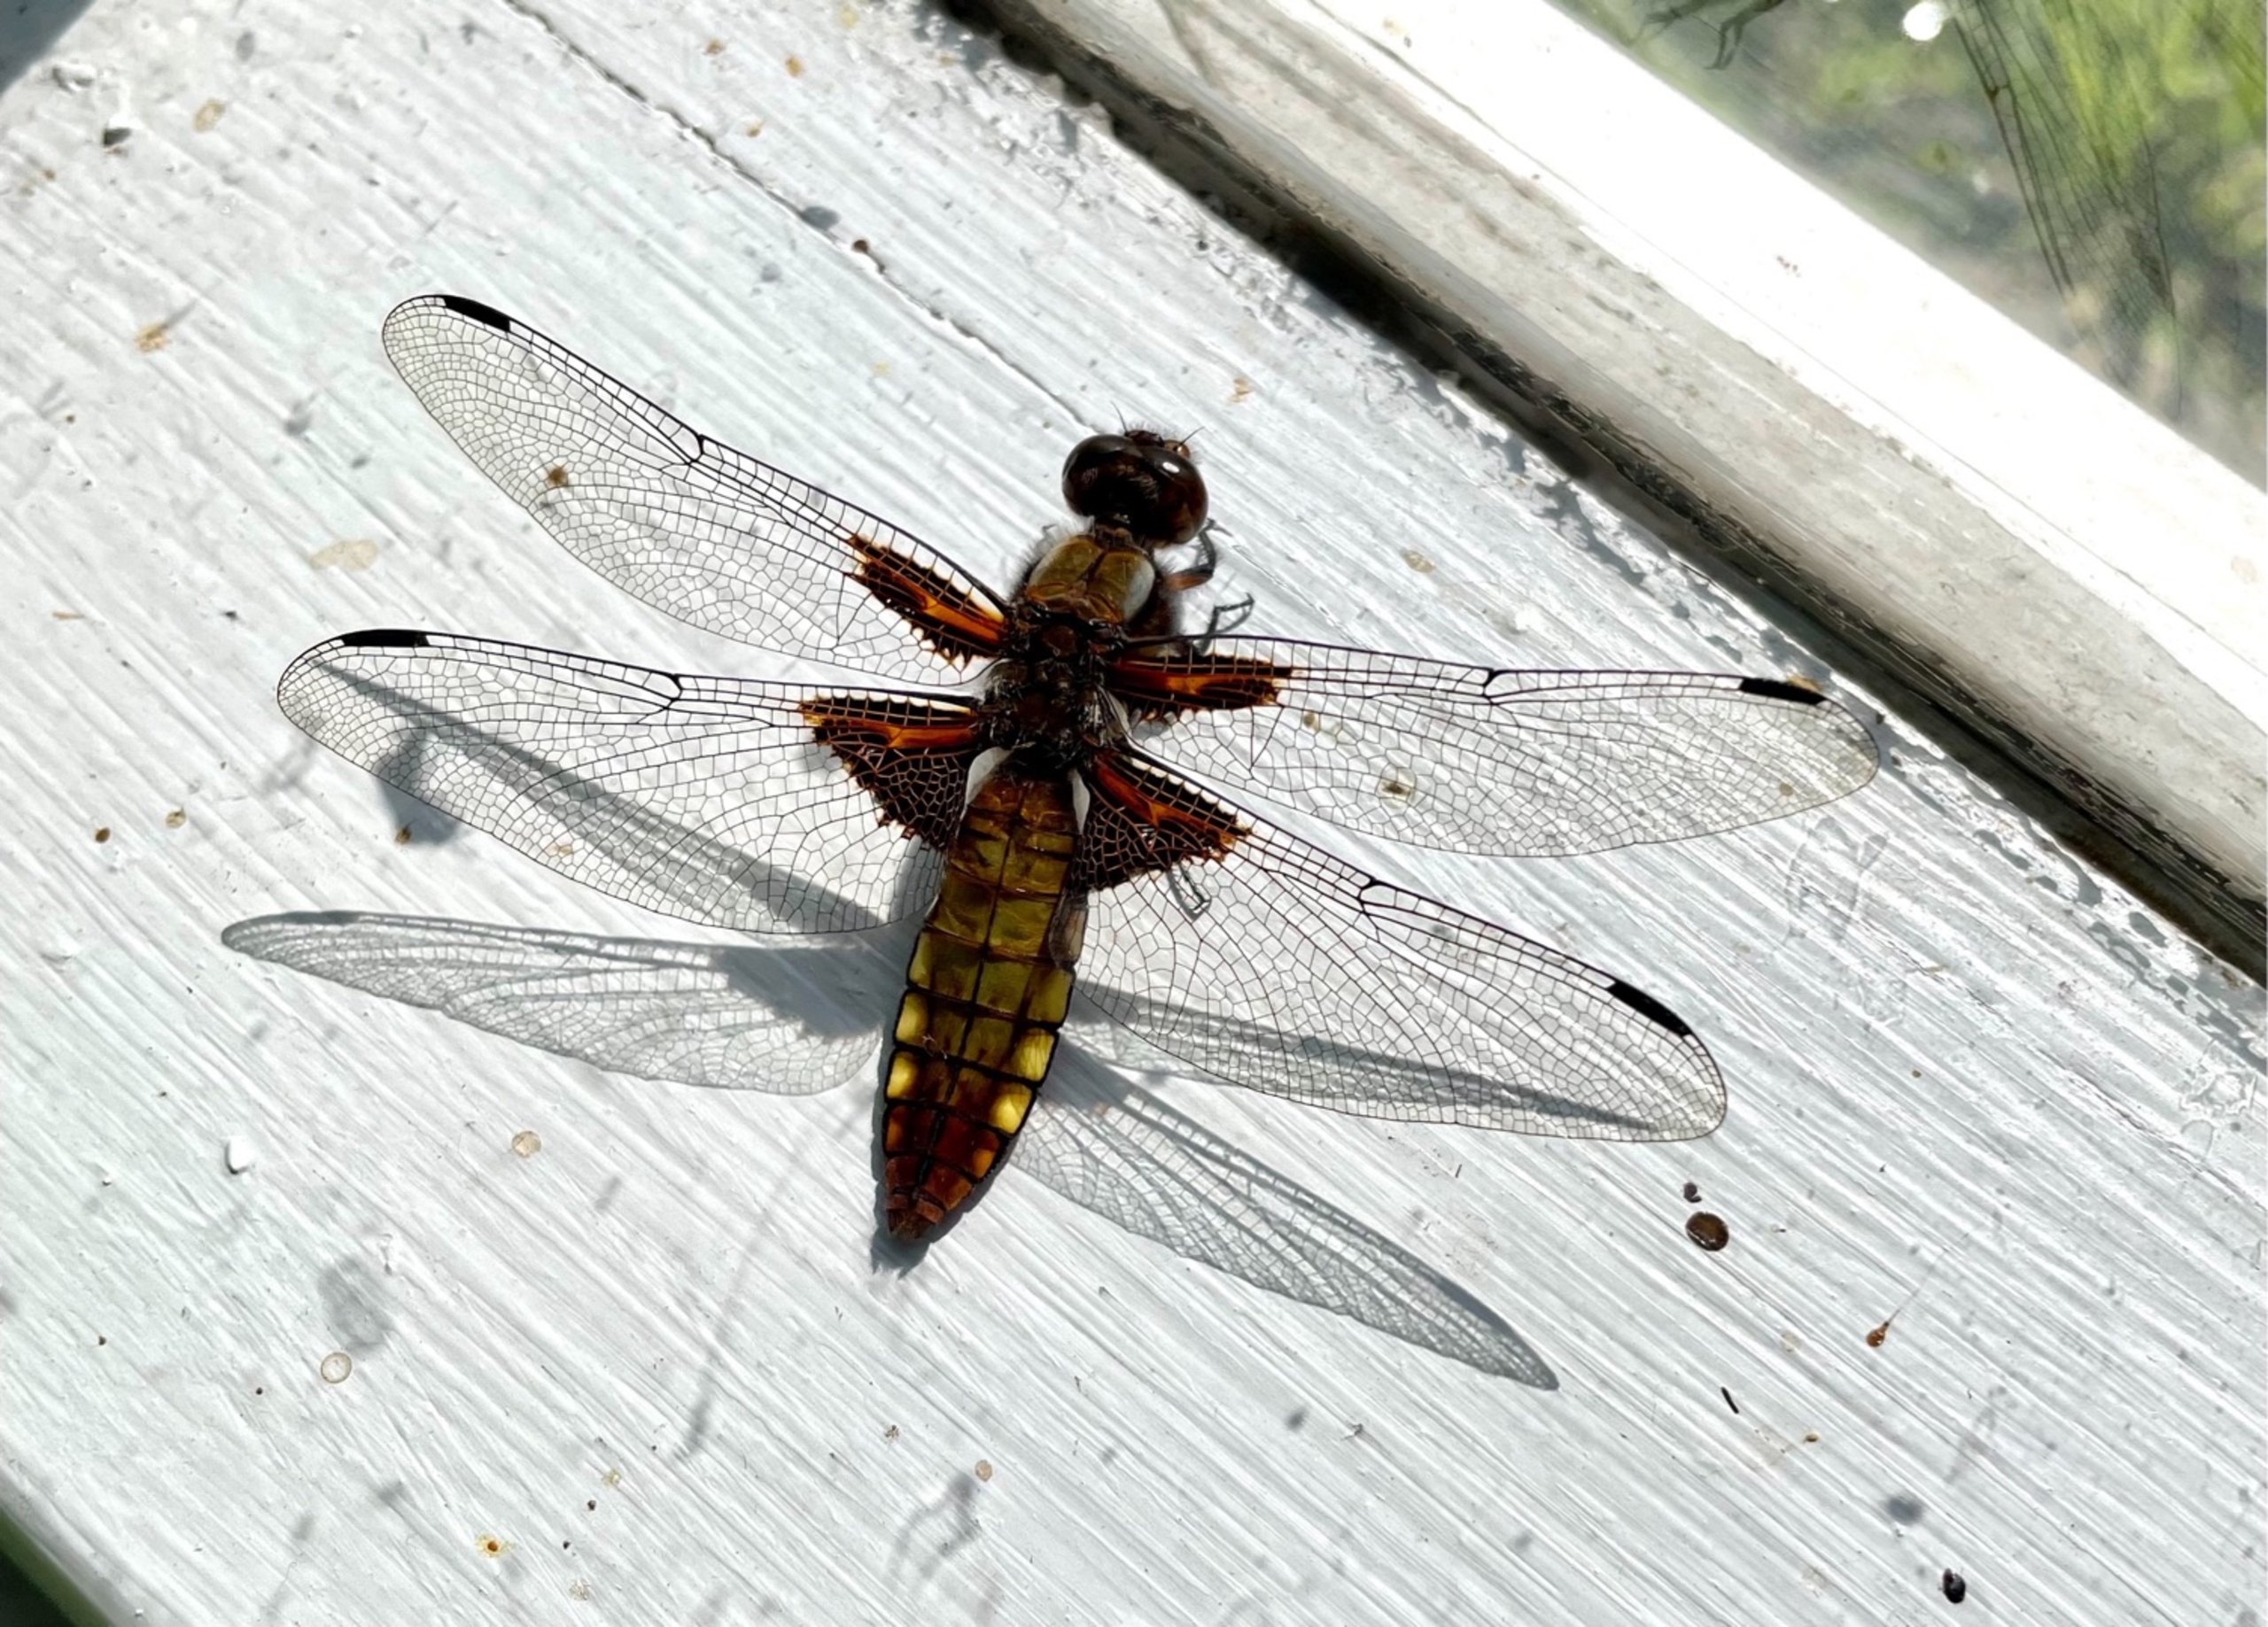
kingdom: Animalia
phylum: Arthropoda
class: Insecta
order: Odonata
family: Libellulidae
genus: Libellula
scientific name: Libellula depressa
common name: Blå libel
